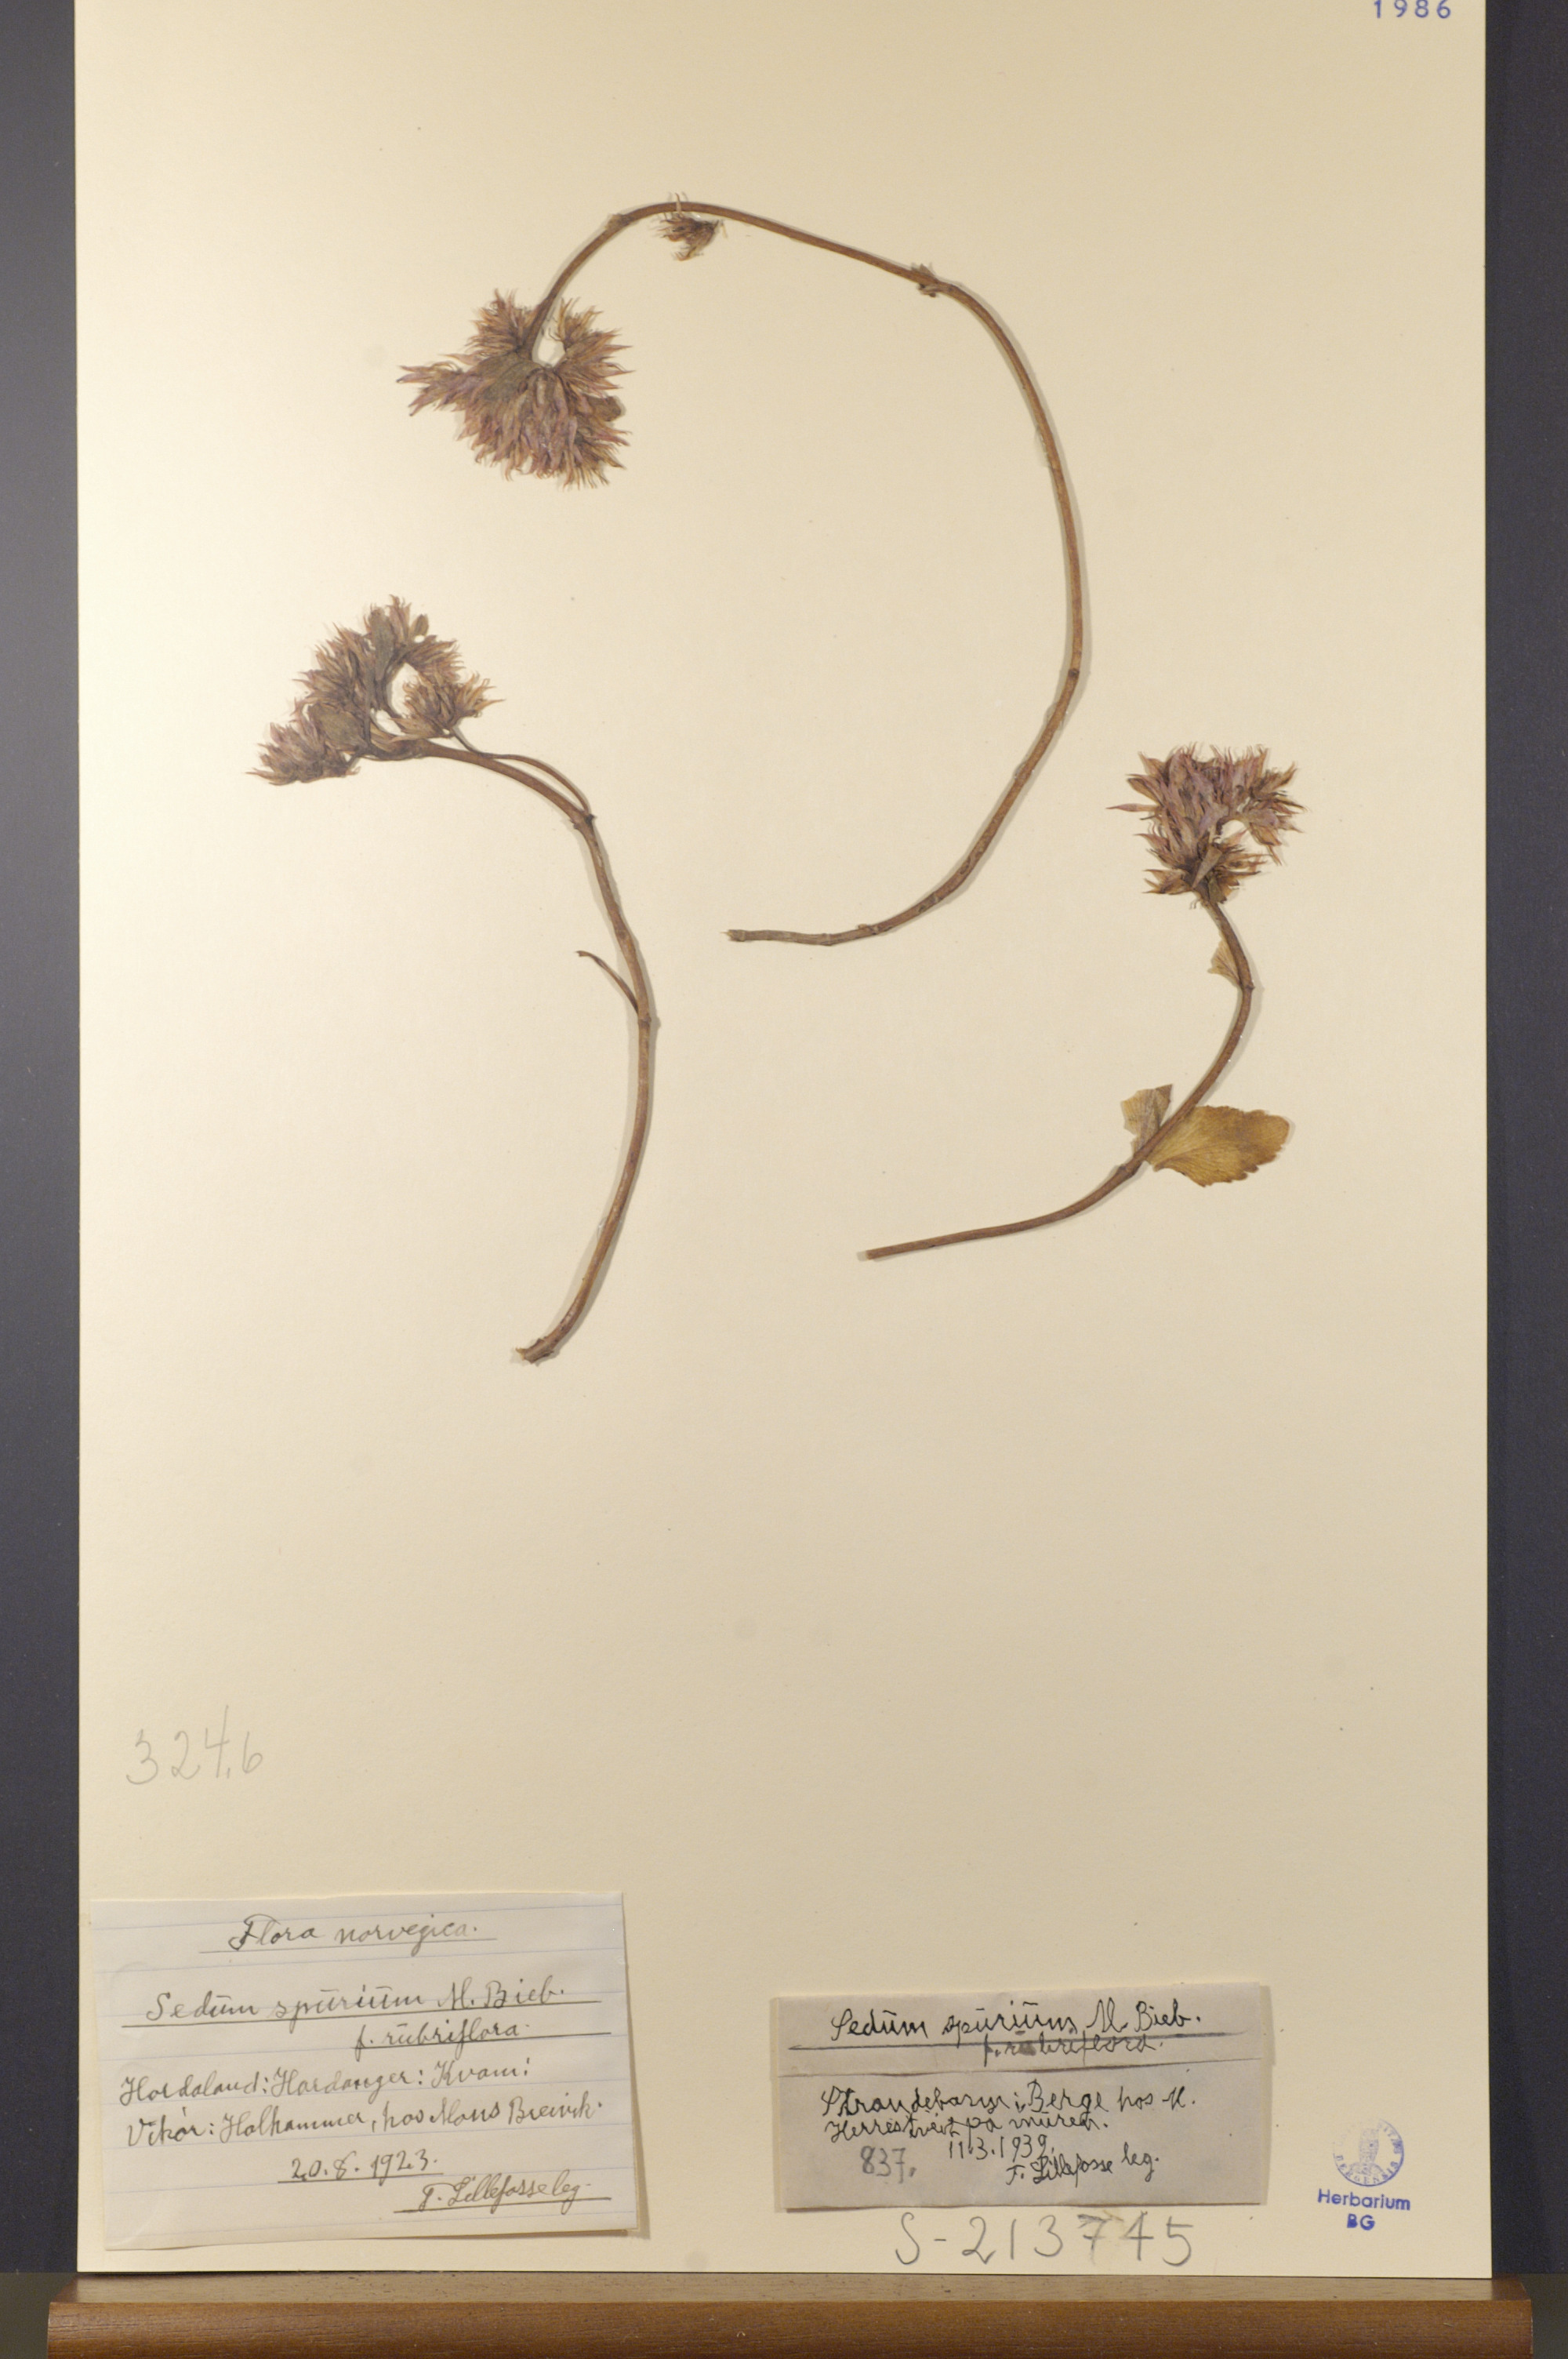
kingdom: Plantae
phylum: Tracheophyta
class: Magnoliopsida
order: Saxifragales
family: Crassulaceae
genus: Phedimus
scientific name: Phedimus spurius
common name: Caucasian stonecrop
